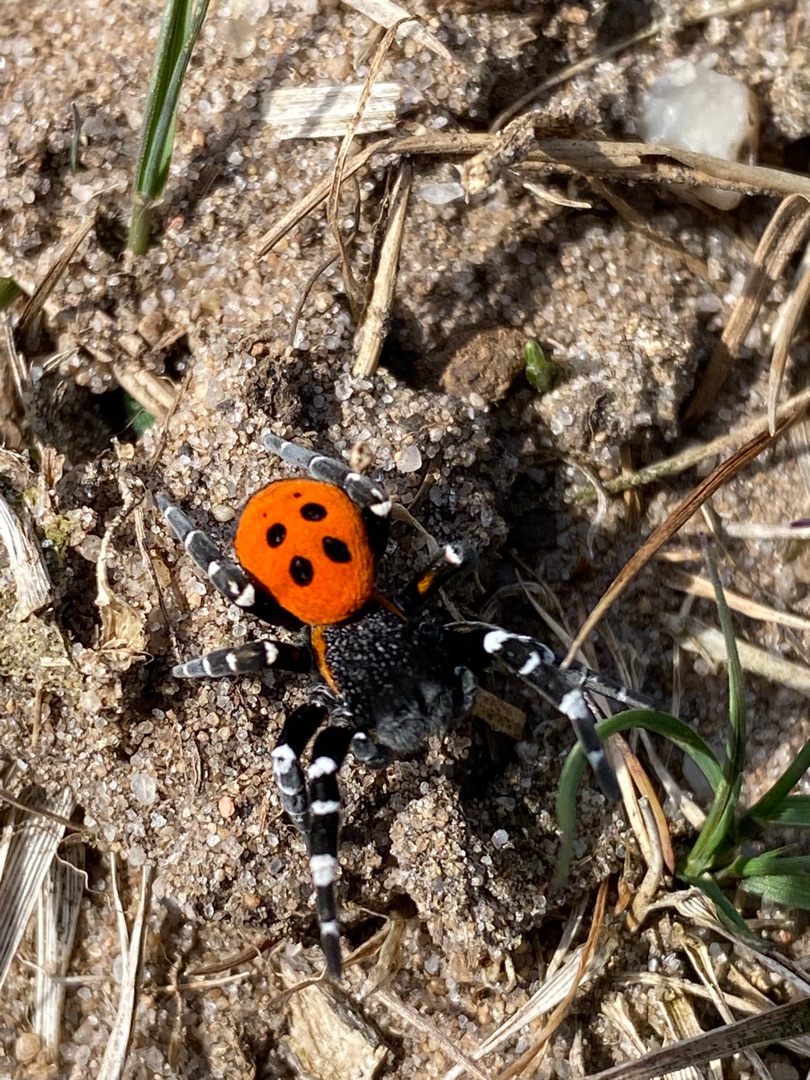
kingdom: Animalia
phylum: Arthropoda
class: Arachnida
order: Araneae
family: Eresidae
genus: Eresus
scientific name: Eresus sandaliatus
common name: Mariehøneedderkop
